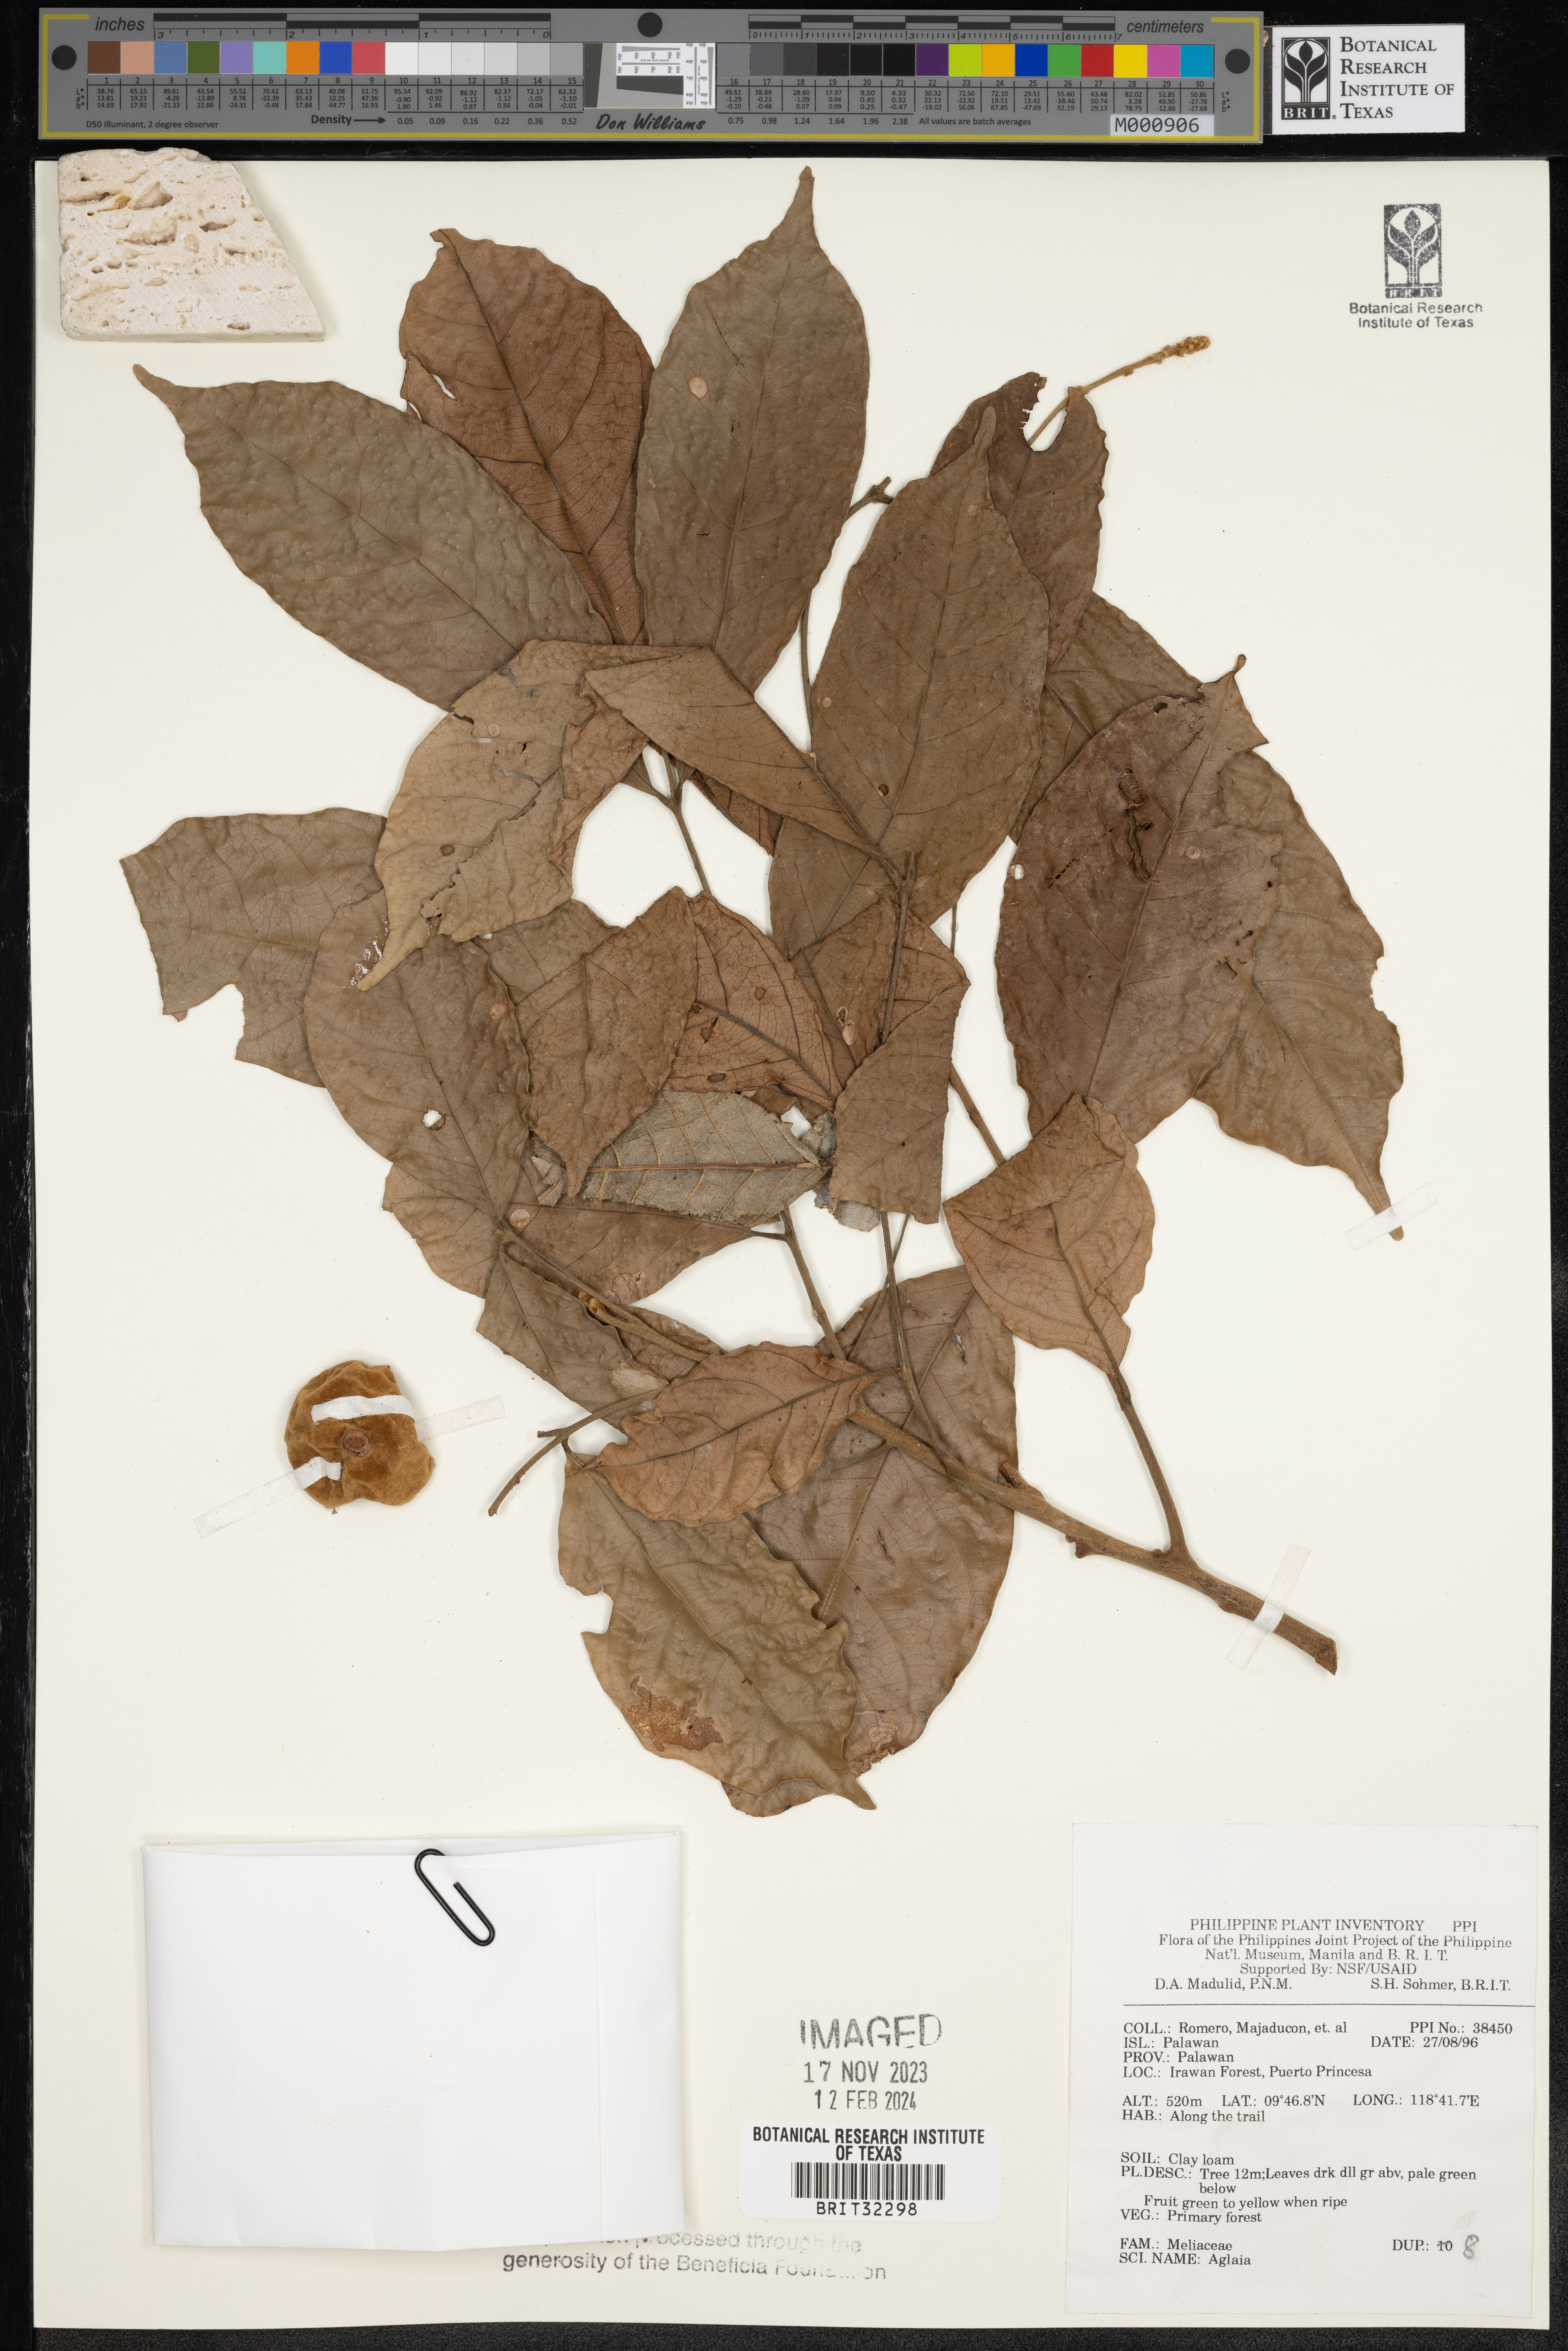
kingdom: Plantae
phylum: Tracheophyta
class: Magnoliopsida
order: Sapindales
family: Meliaceae
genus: Aglaia
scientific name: Aglaia
